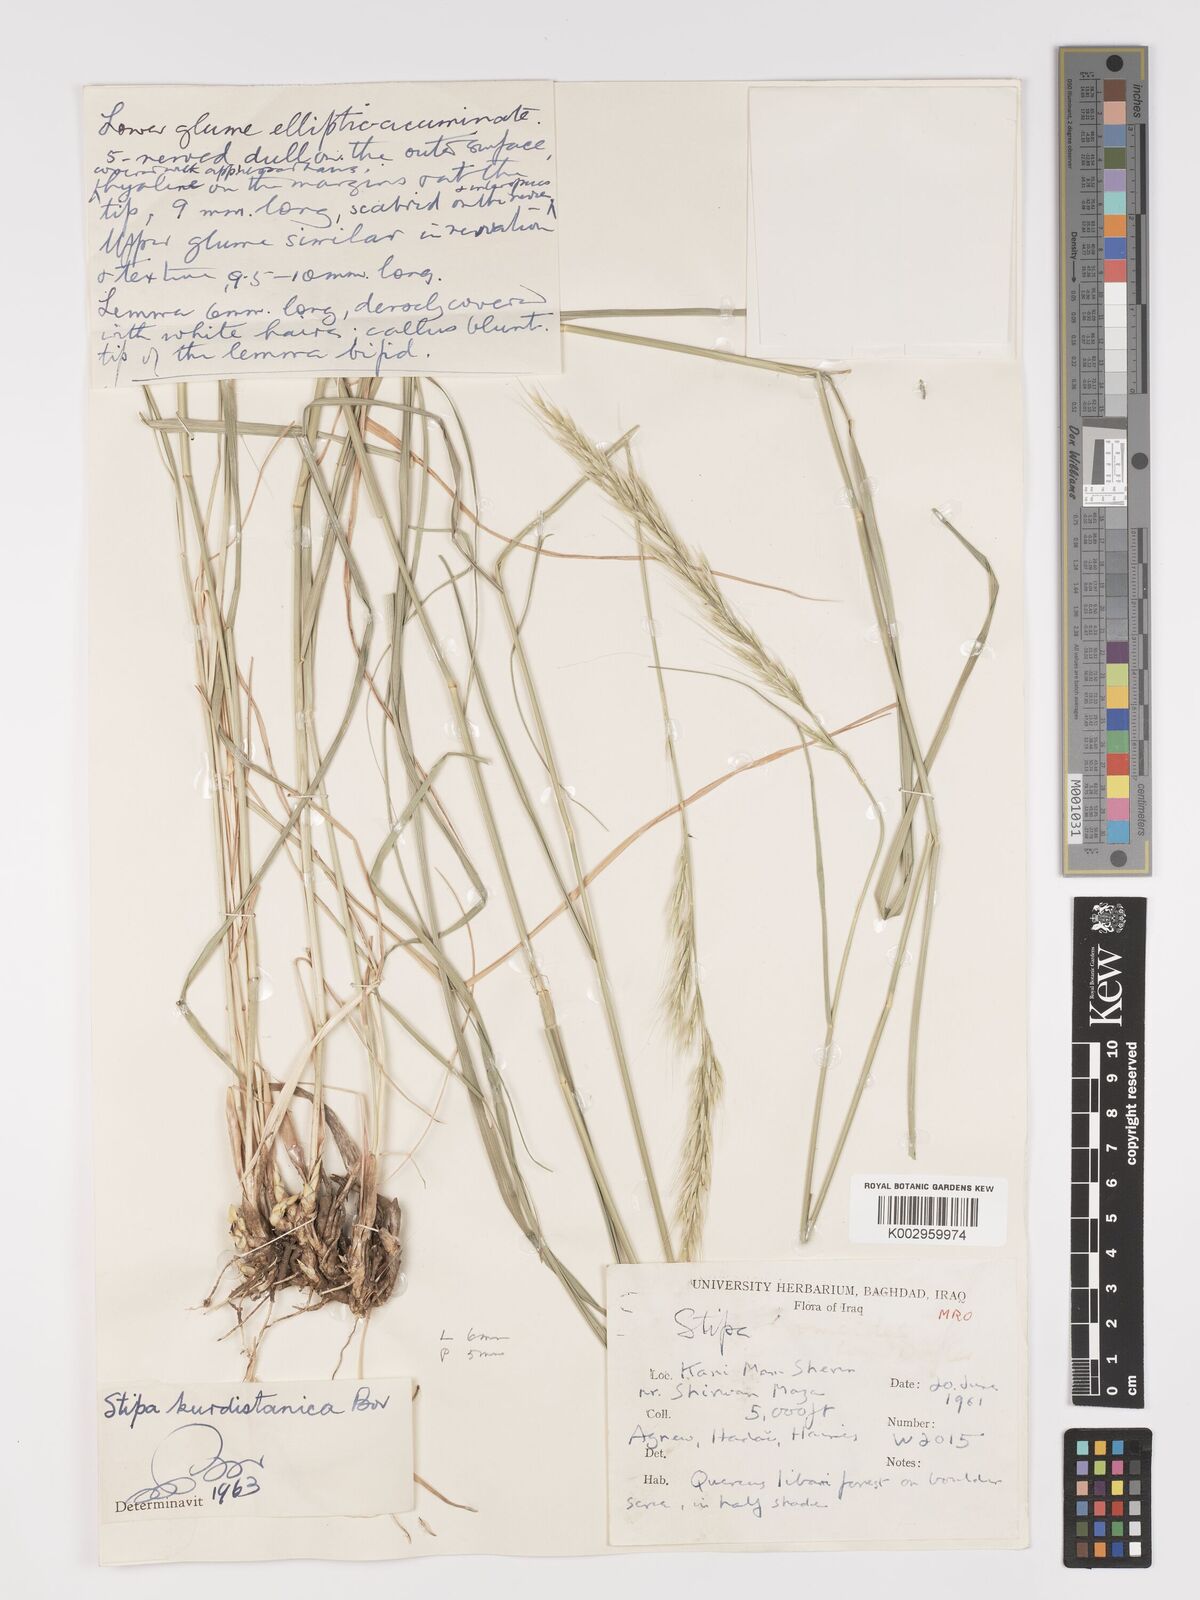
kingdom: Plantae
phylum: Tracheophyta
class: Liliopsida
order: Poales
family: Poaceae
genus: Achnatherum
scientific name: Achnatherum turcomanicum
